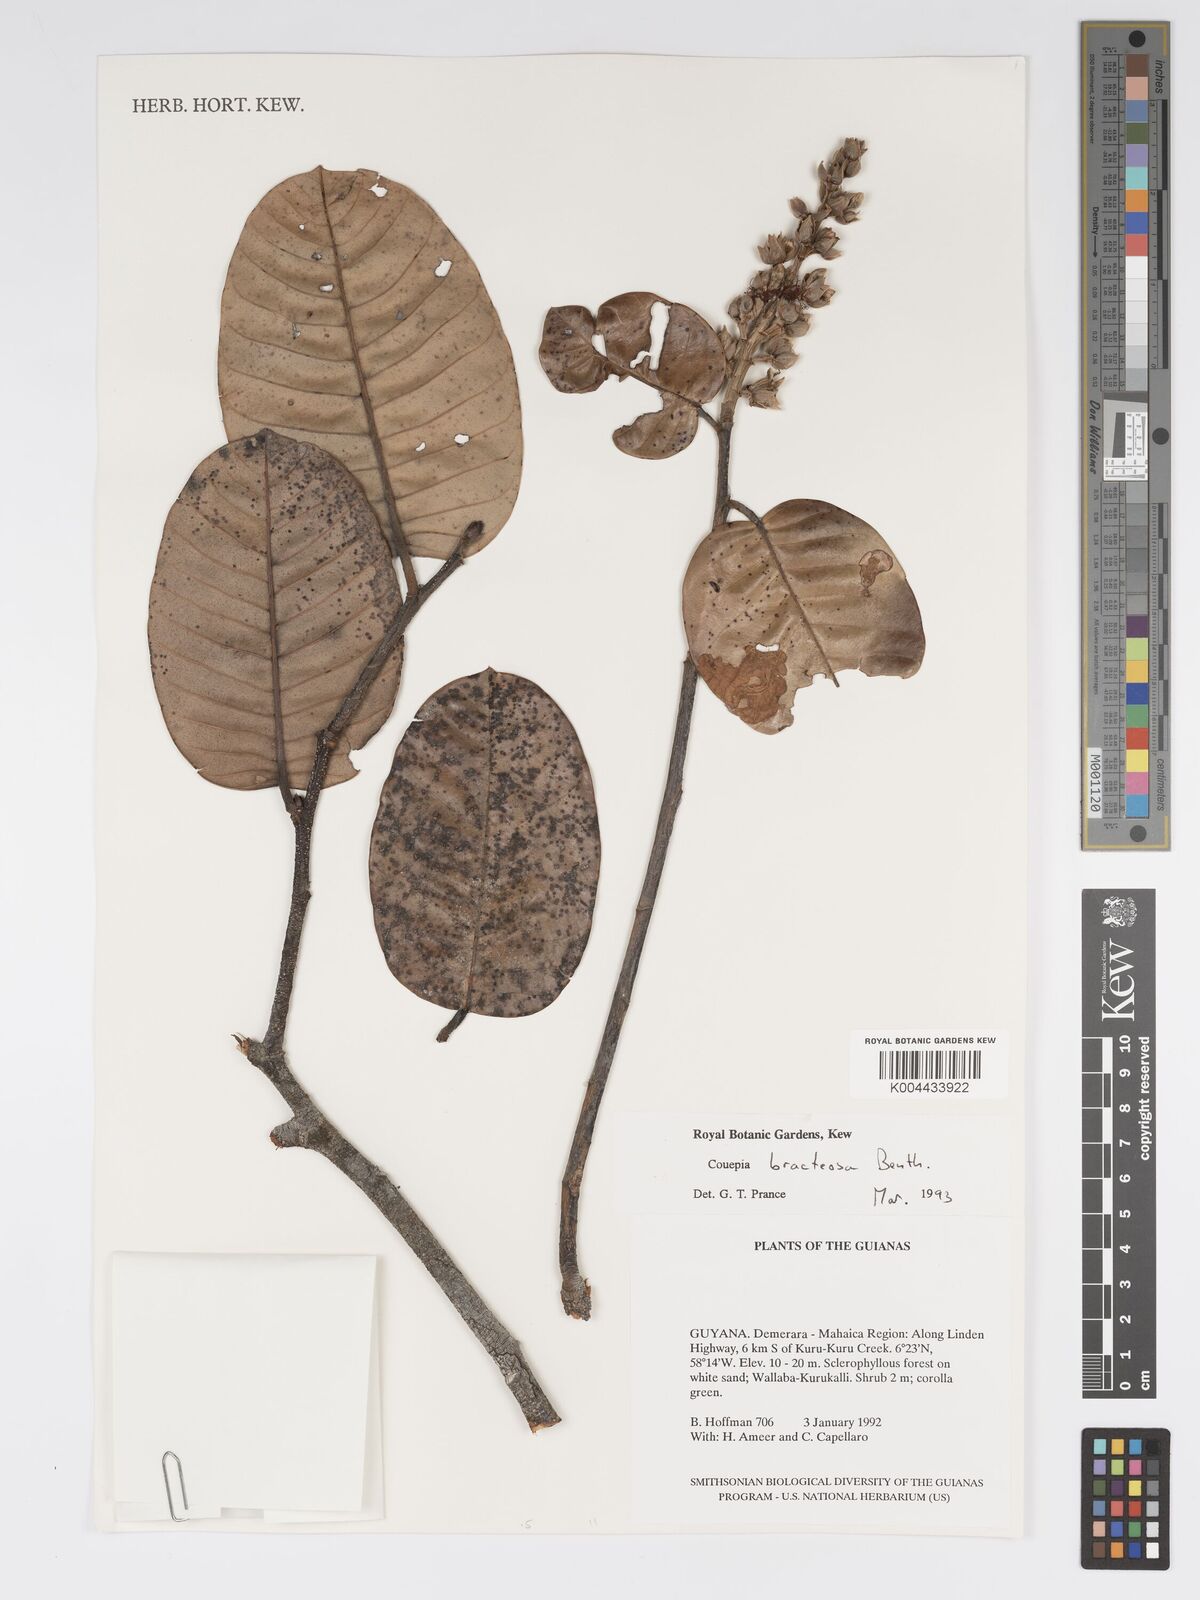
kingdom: Plantae
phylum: Tracheophyta
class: Magnoliopsida
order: Malpighiales
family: Chrysobalanaceae
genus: Couepia
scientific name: Couepia bracteosa
